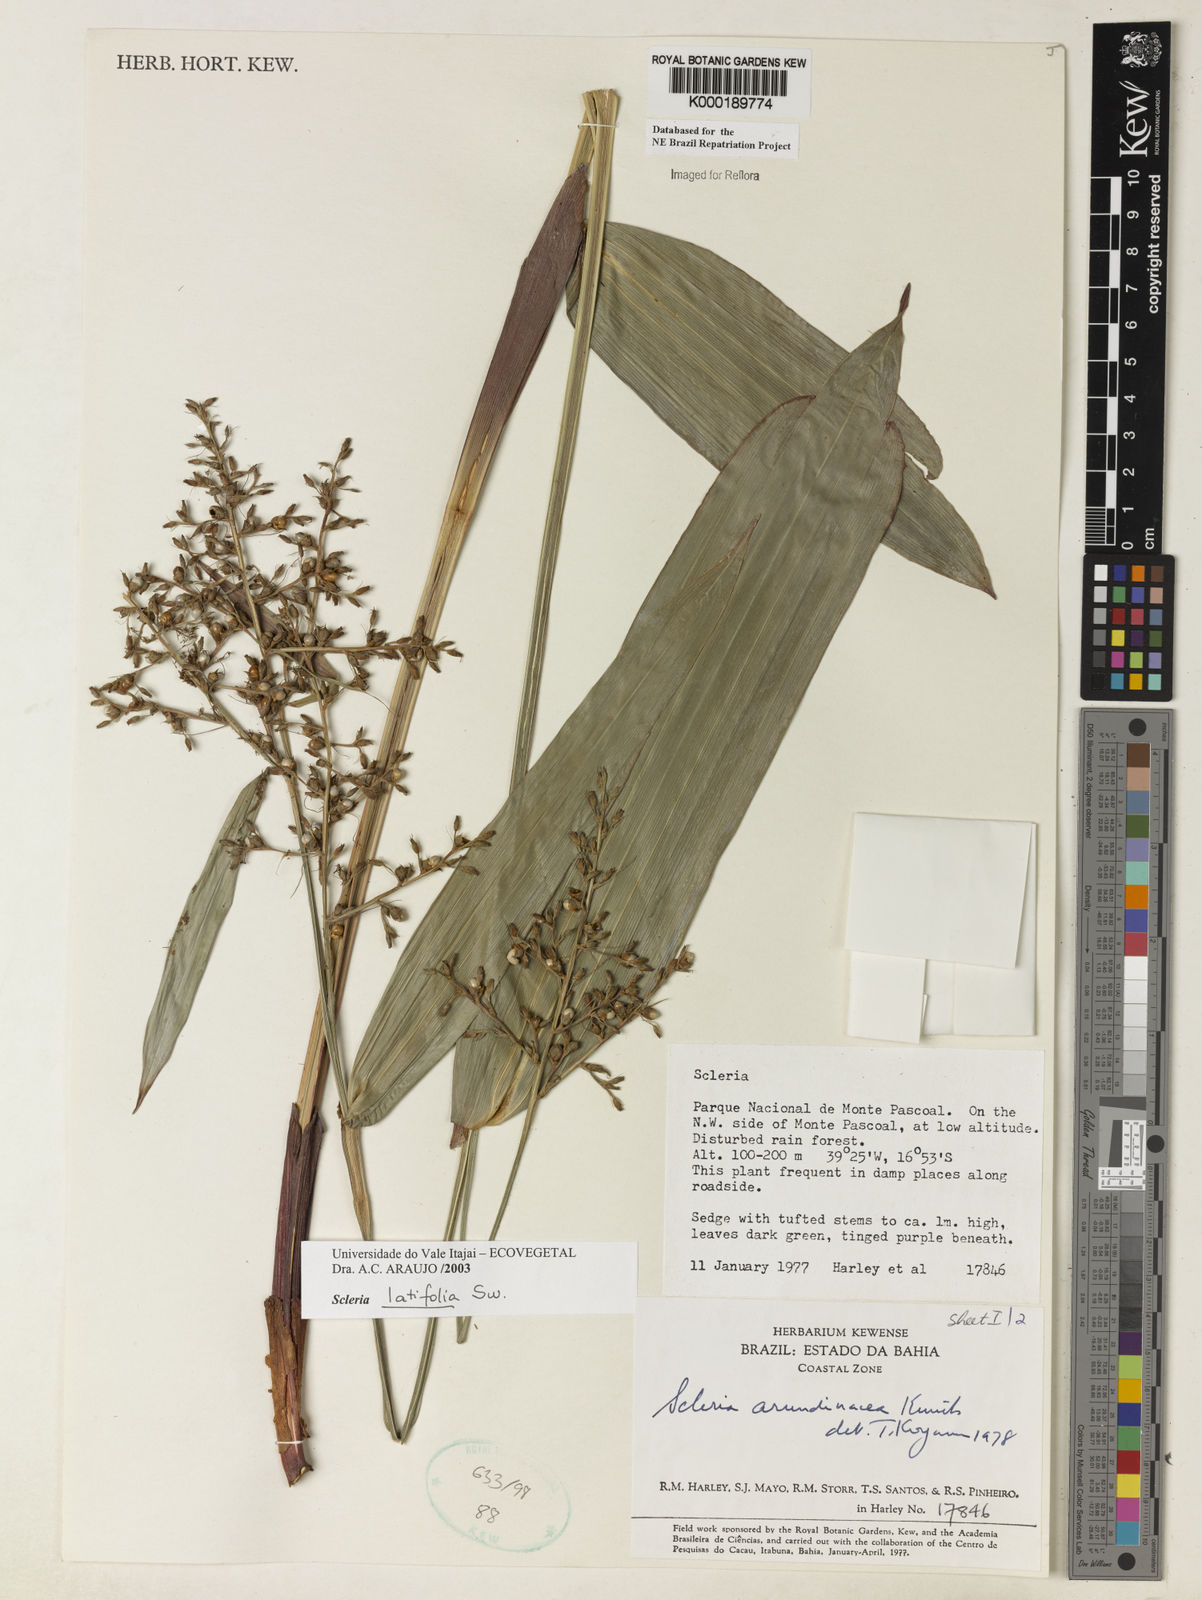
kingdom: Plantae
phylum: Tracheophyta
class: Liliopsida
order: Poales
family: Cyperaceae
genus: Scleria
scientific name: Scleria latifolia
